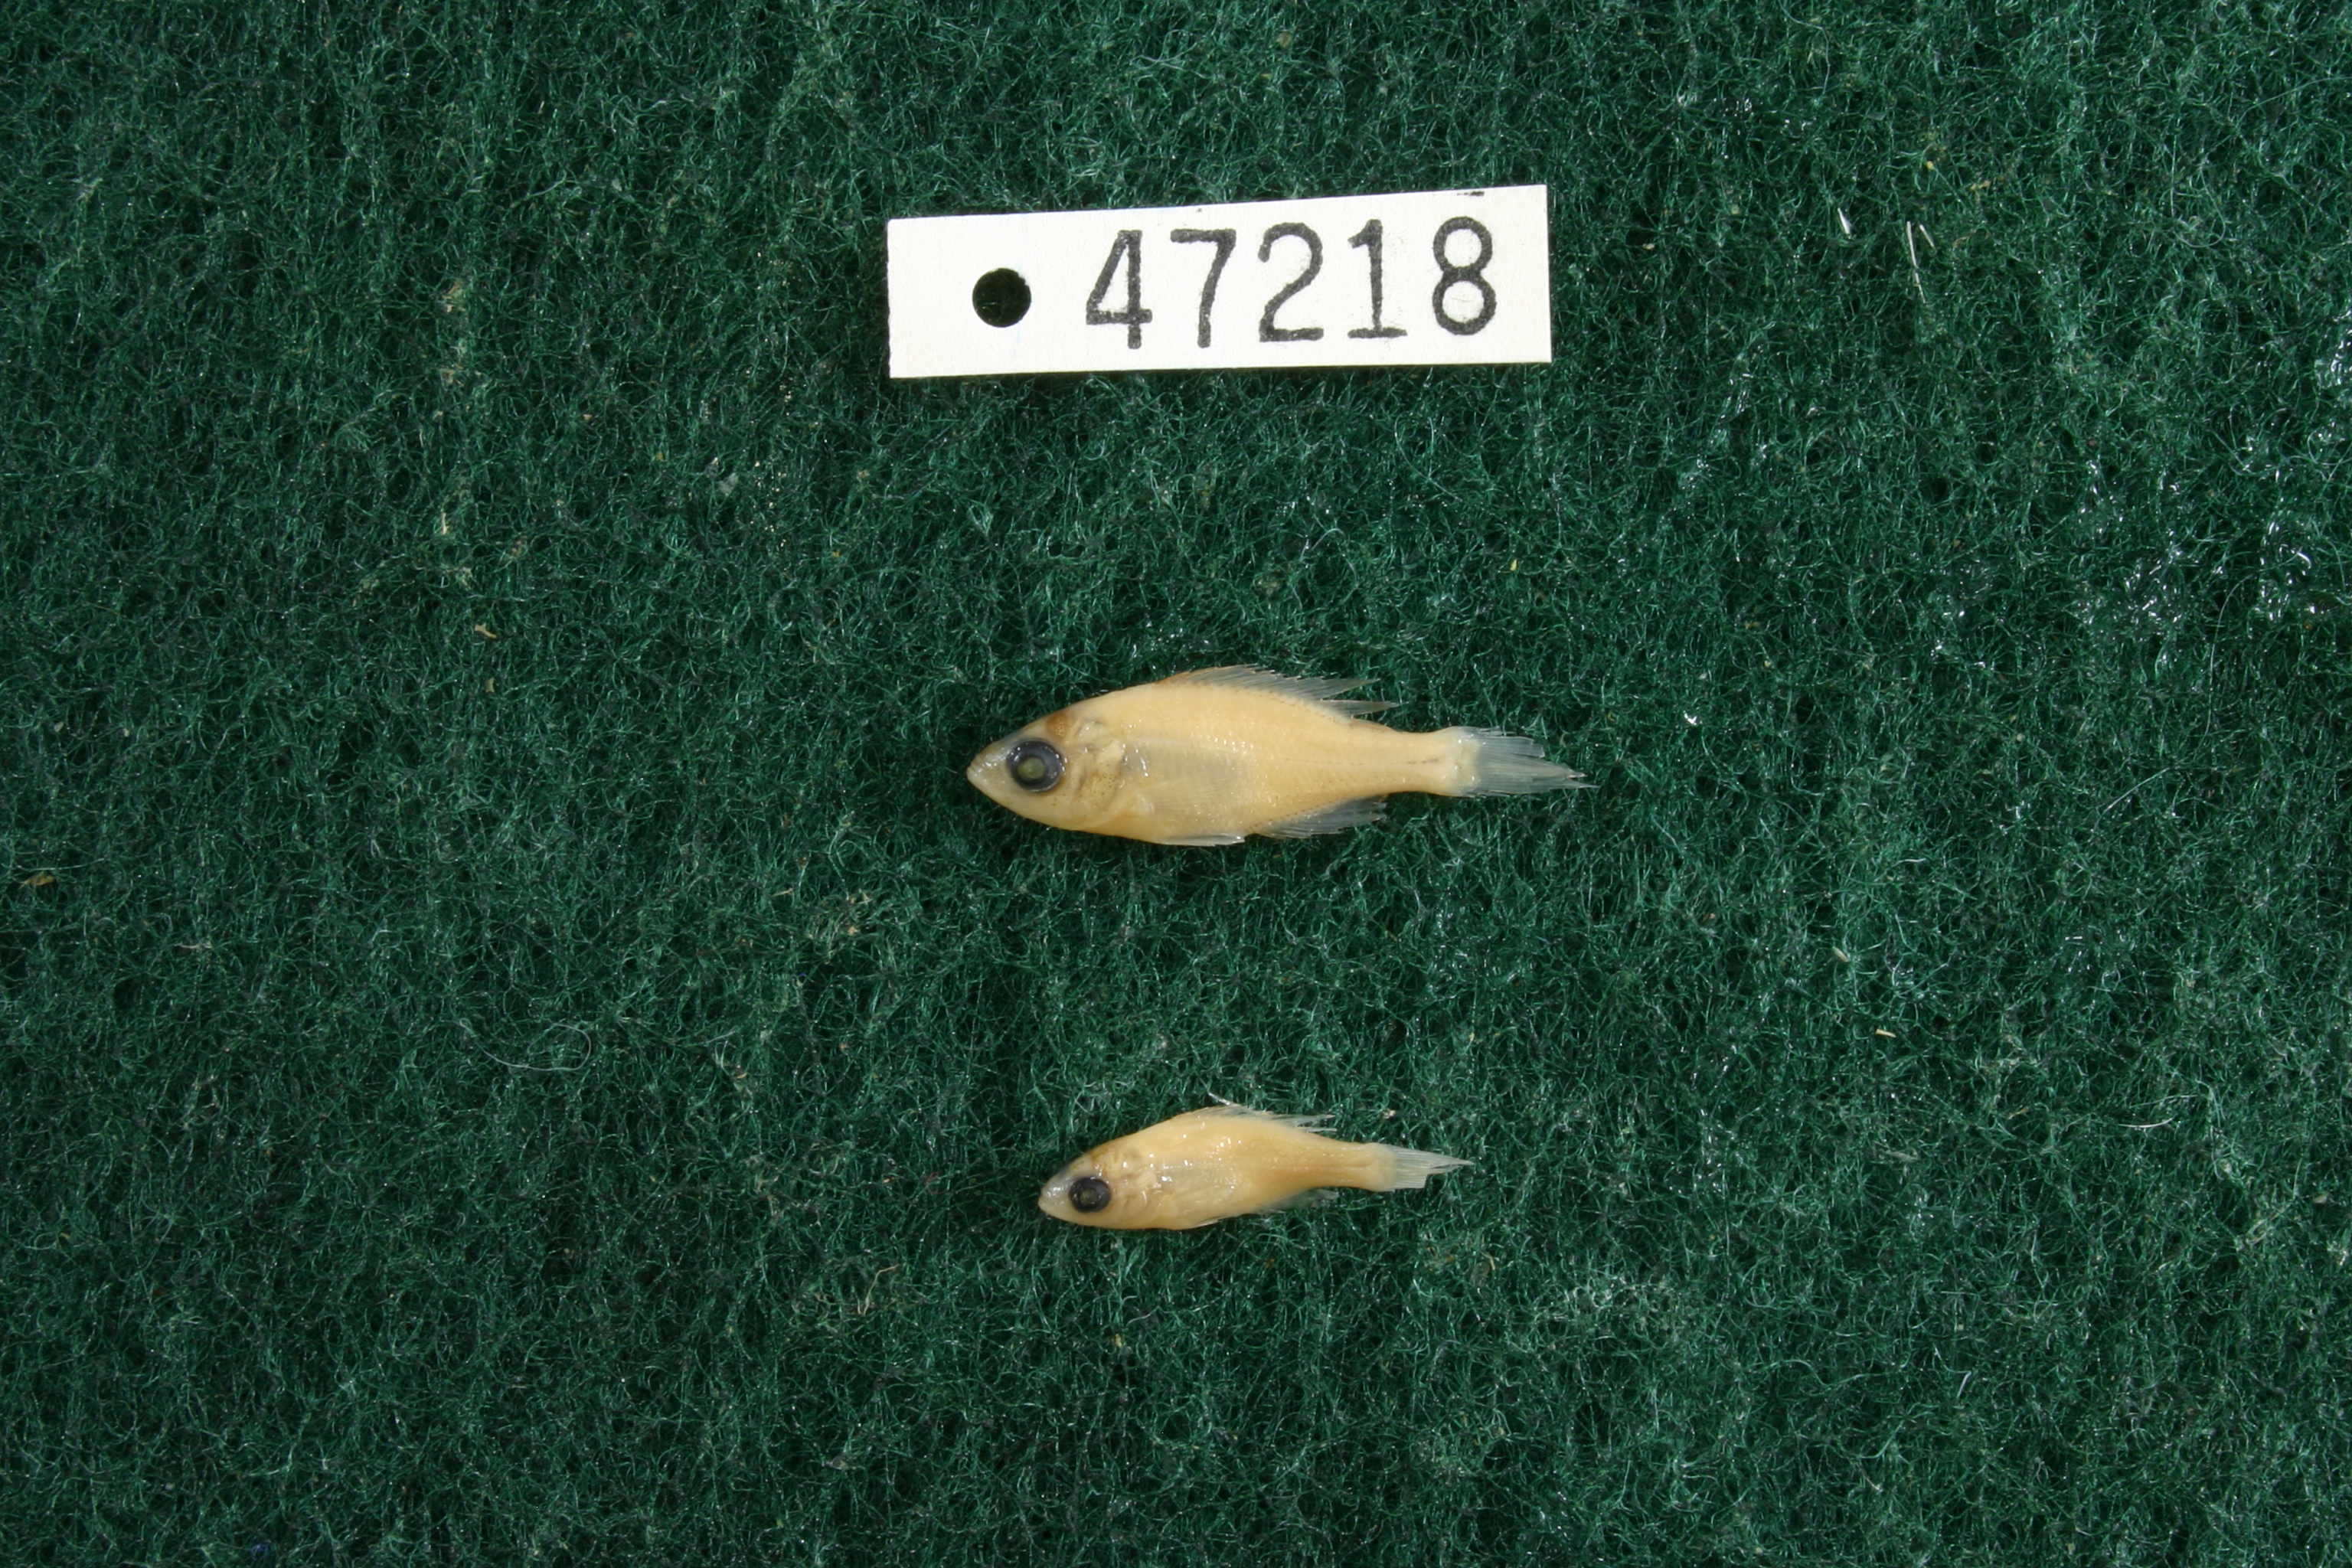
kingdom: Animalia
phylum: Chordata
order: Perciformes
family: Centrarchidae
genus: Lepomis
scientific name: Lepomis
